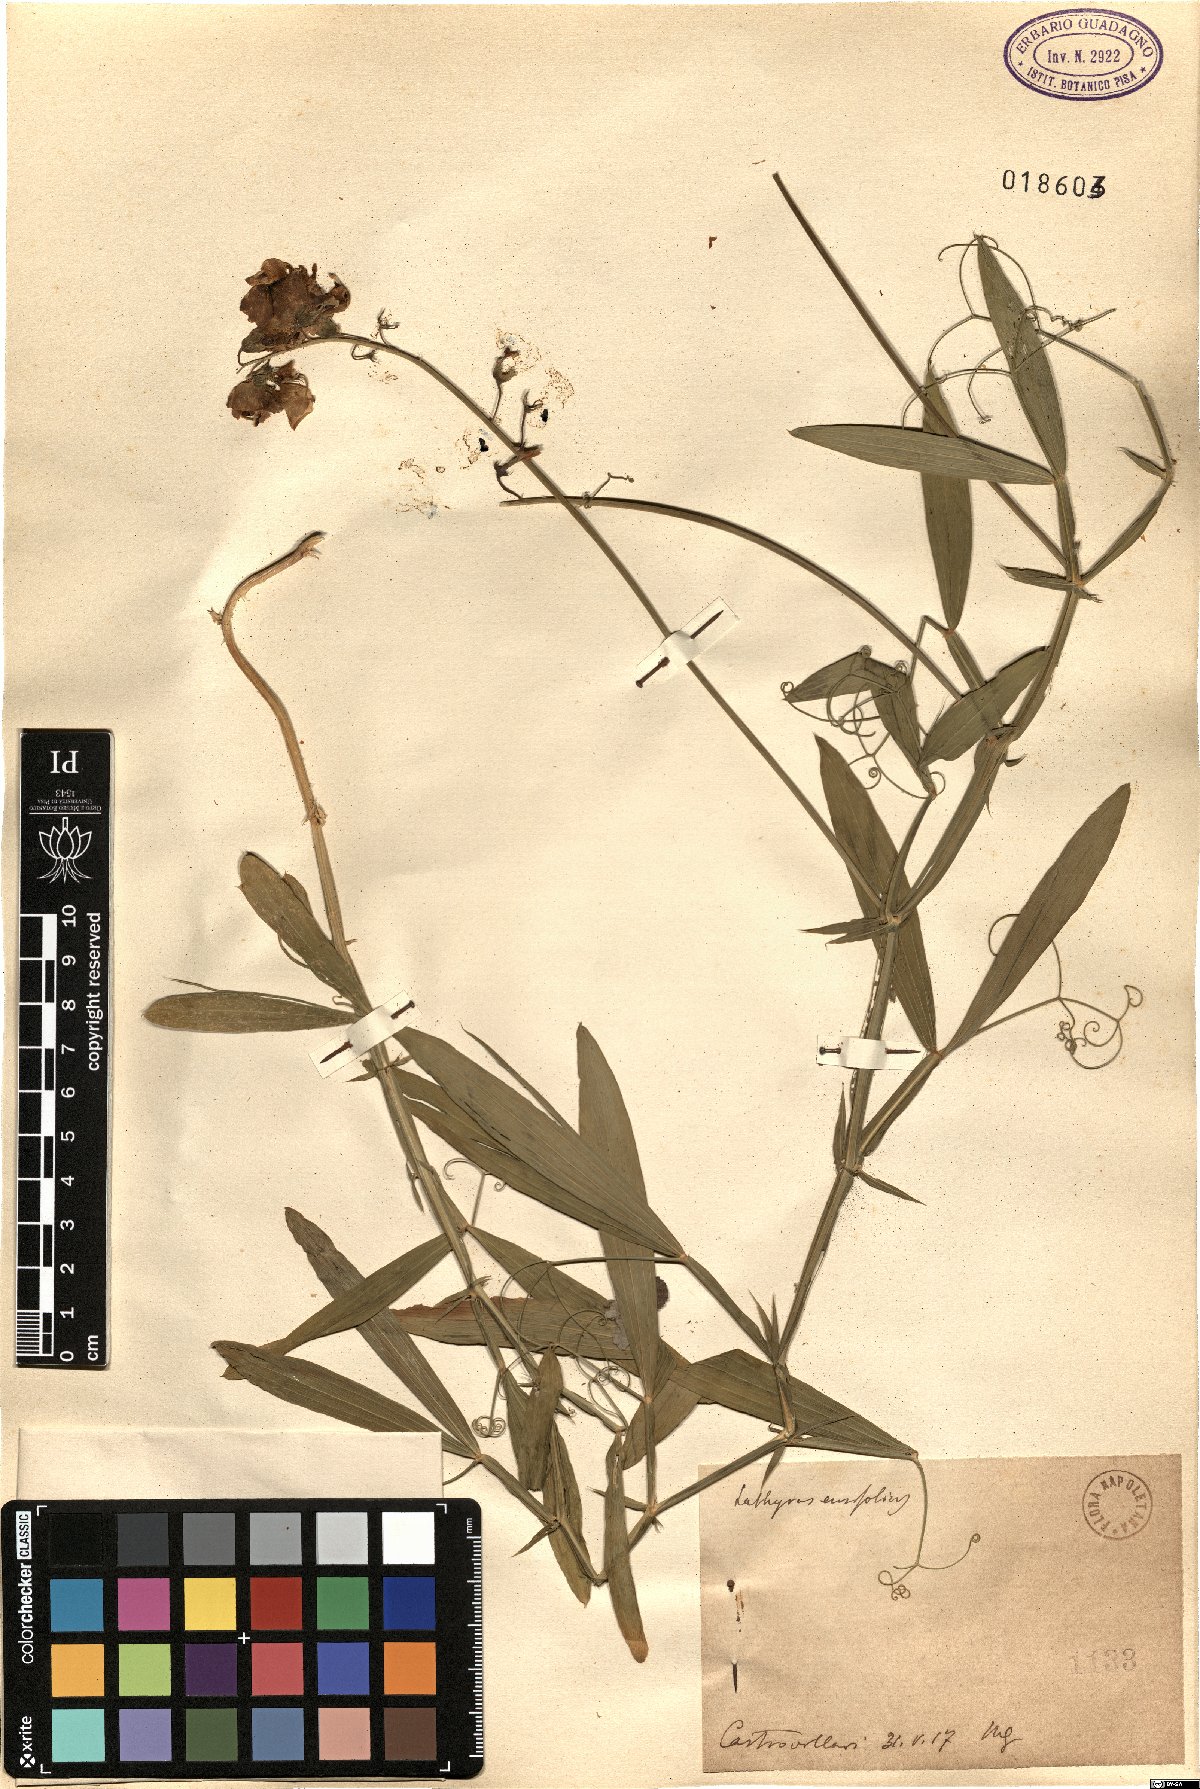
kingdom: Plantae
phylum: Tracheophyta
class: Magnoliopsida
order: Fabales
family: Fabaceae
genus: Lathyrus
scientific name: Lathyrus bauhini
